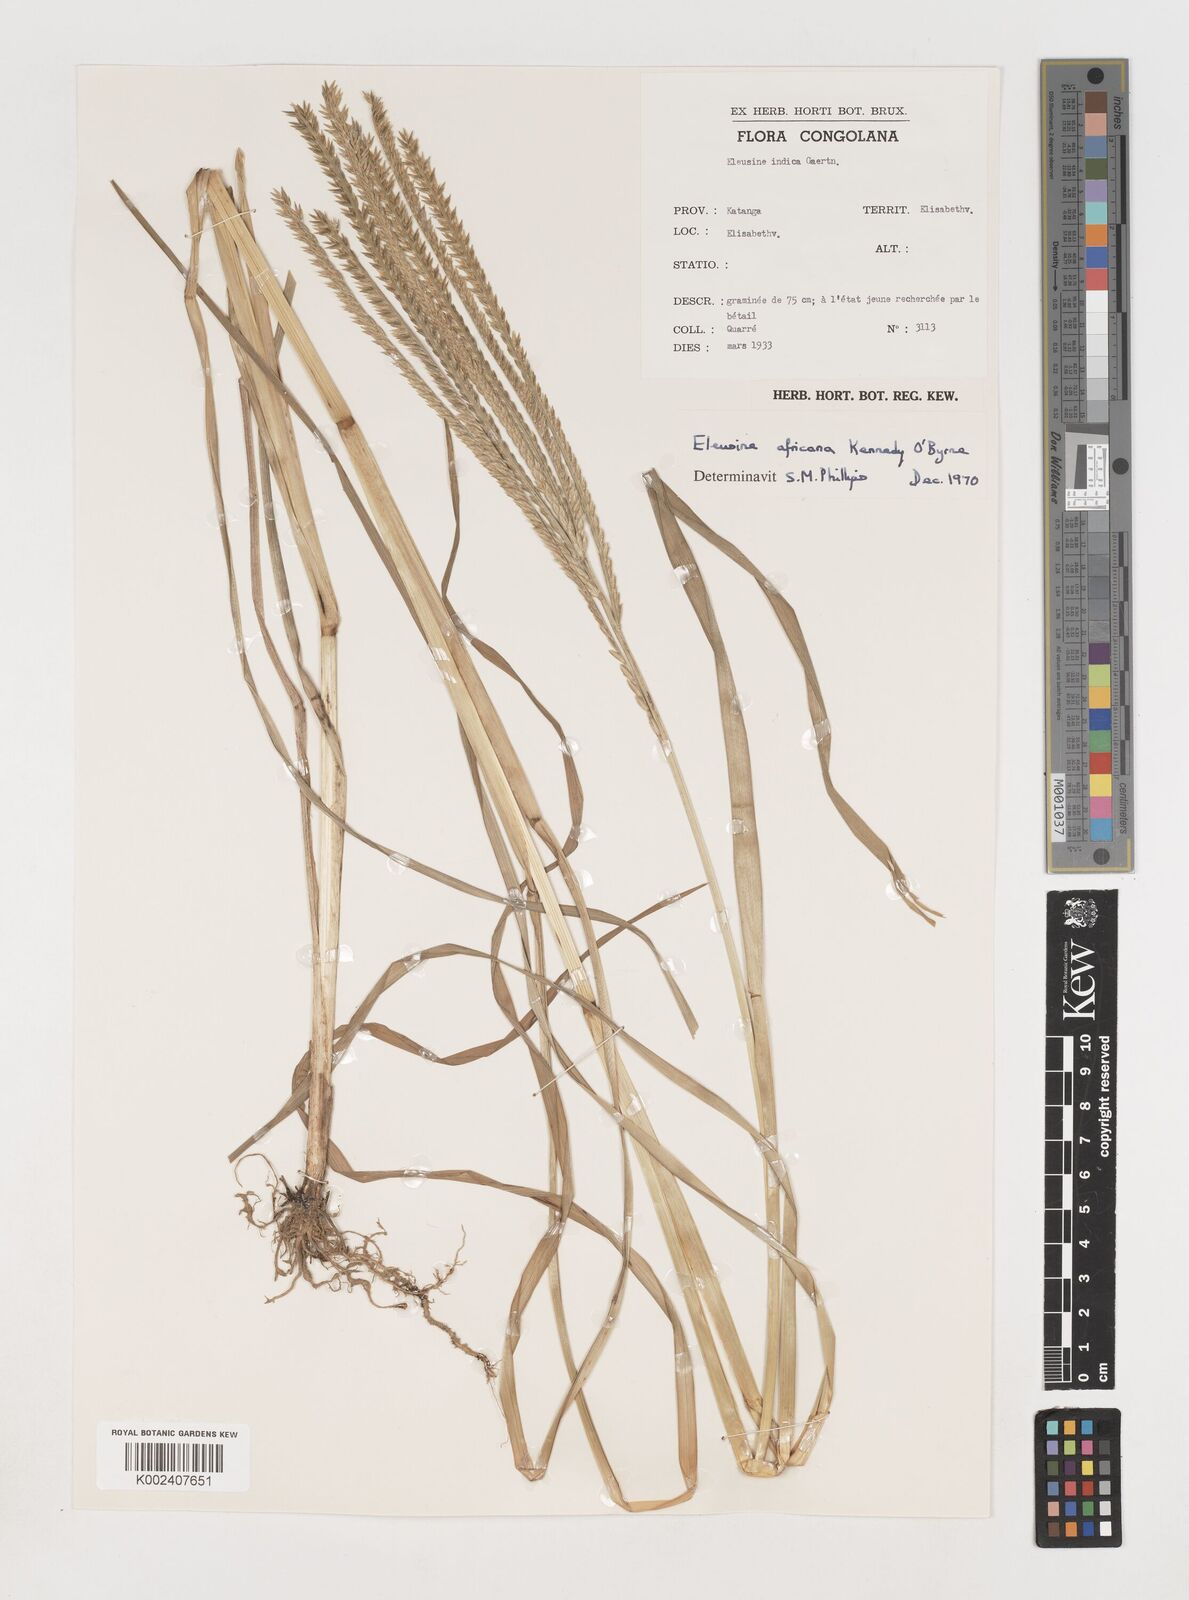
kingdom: Plantae
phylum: Tracheophyta
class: Liliopsida
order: Poales
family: Poaceae
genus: Eleusine
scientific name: Eleusine africana
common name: Wild african finger millet
